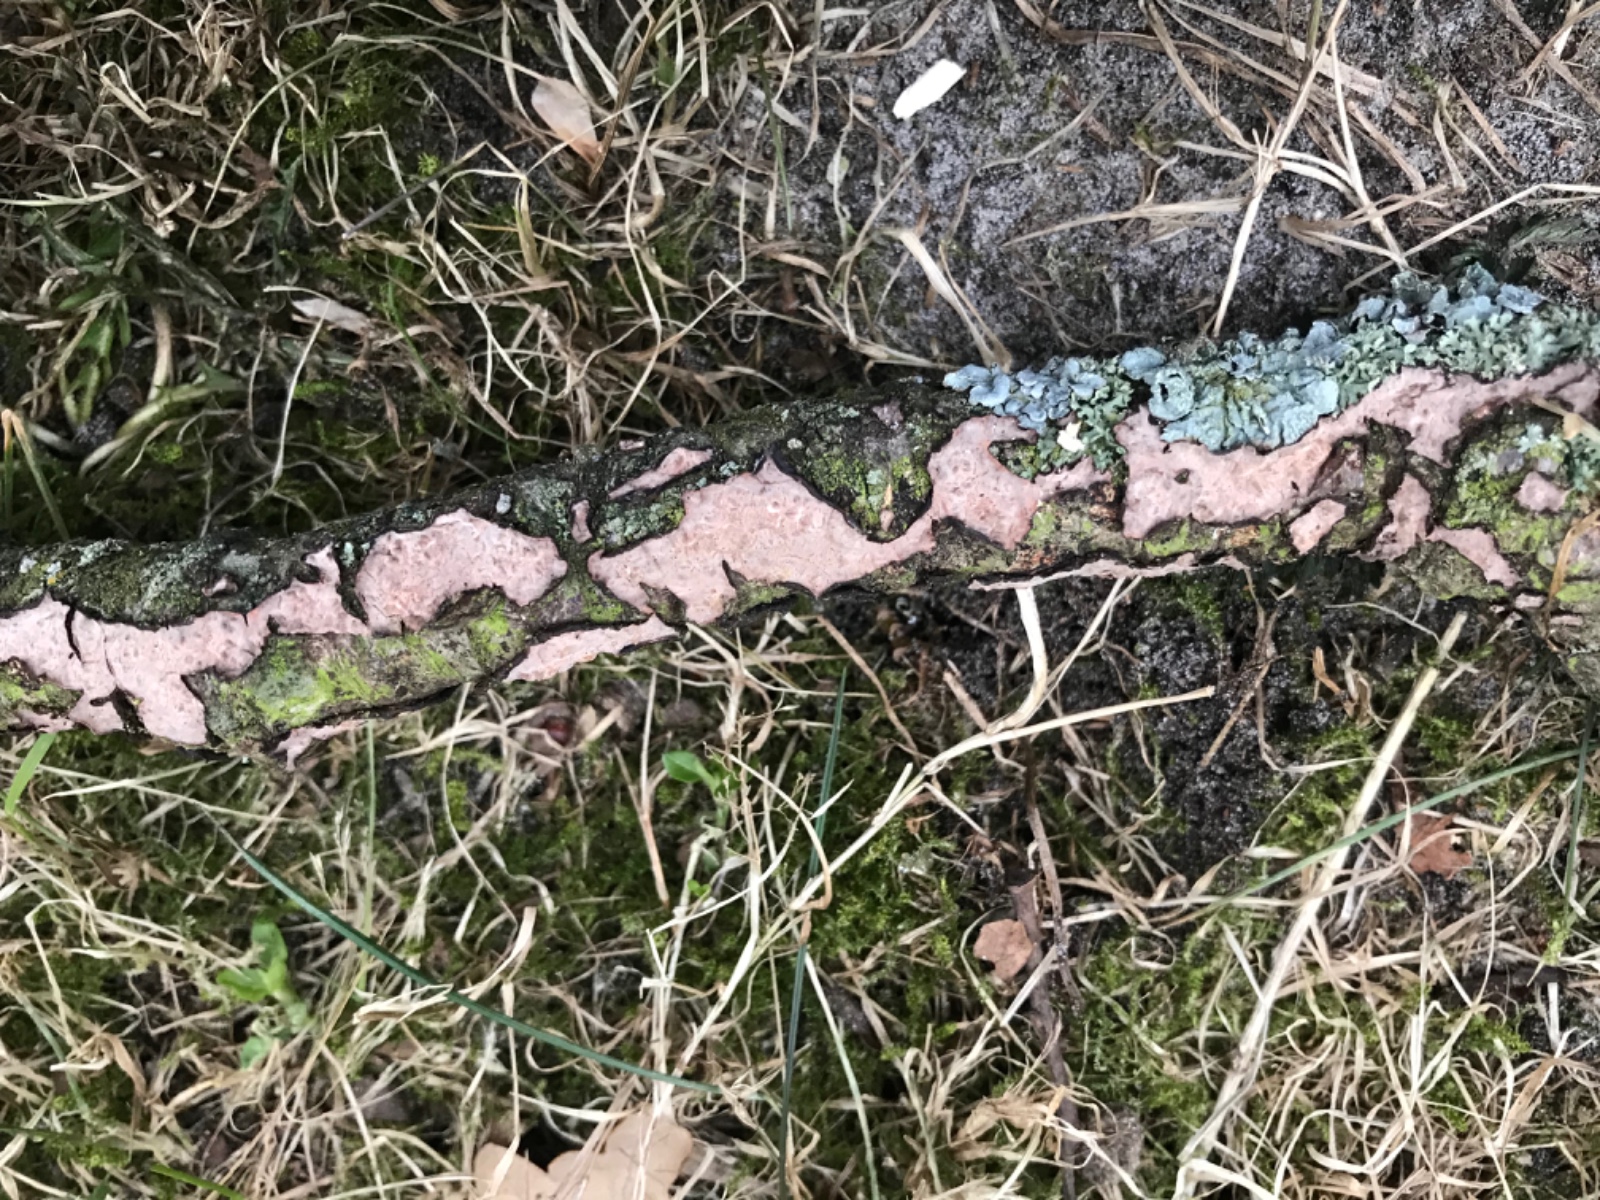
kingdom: Fungi
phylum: Basidiomycota
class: Agaricomycetes
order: Russulales
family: Peniophoraceae
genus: Peniophora
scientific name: Peniophora quercina
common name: ege-voksskind
